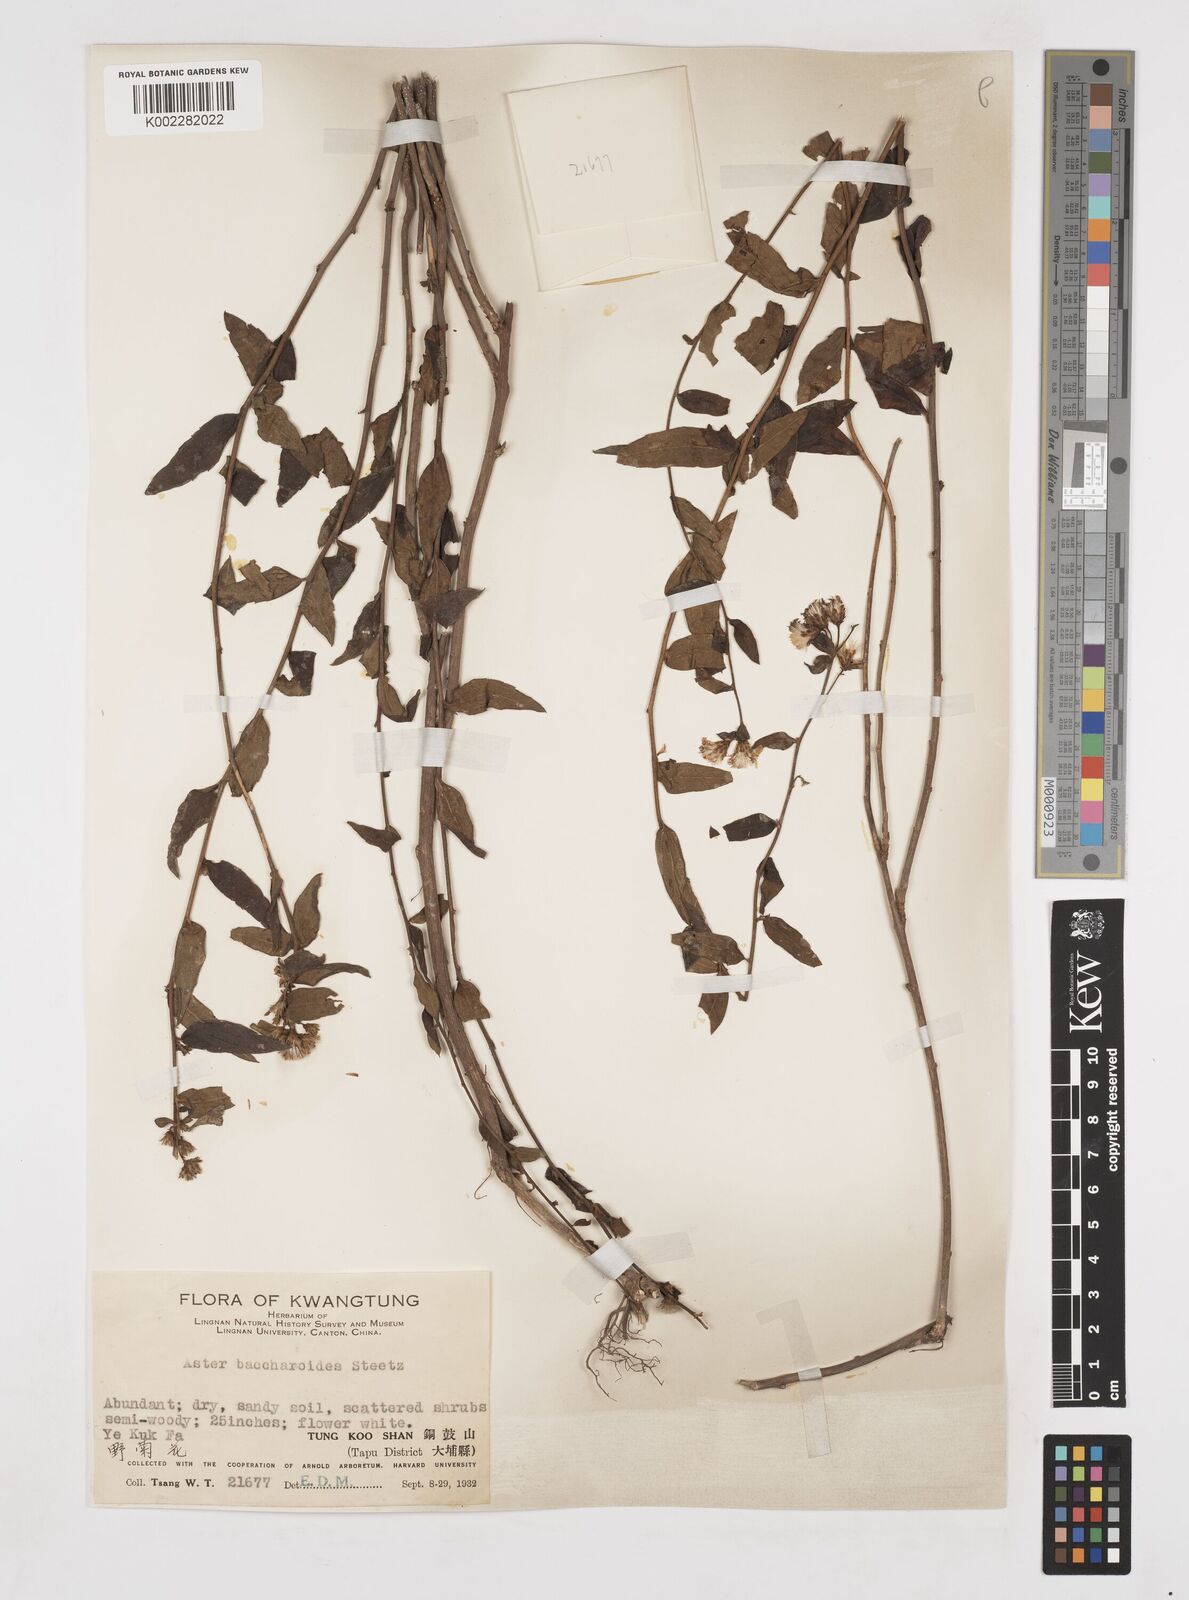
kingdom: Plantae
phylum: Tracheophyta
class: Magnoliopsida
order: Asterales
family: Asteraceae
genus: Aster
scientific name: Aster baccharoides
